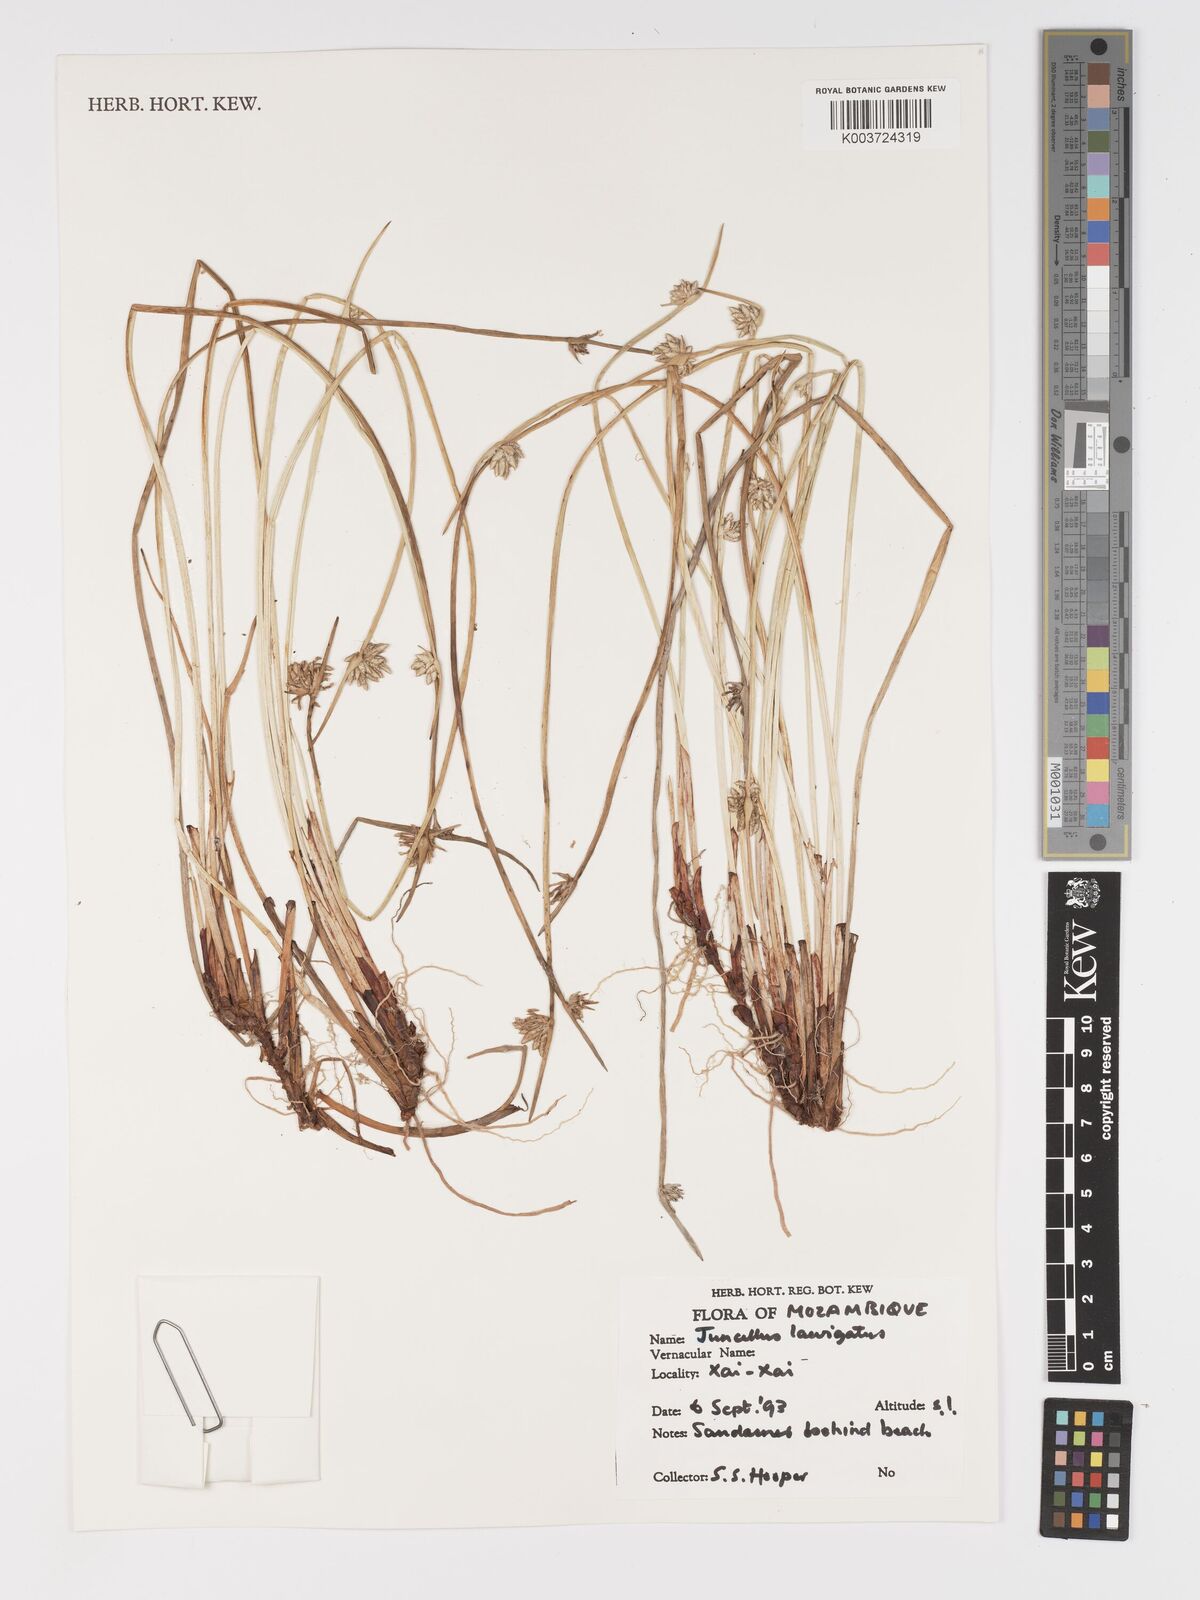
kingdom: Plantae
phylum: Tracheophyta
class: Liliopsida
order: Poales
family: Cyperaceae
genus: Cyperus
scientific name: Cyperus laevigatus
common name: Smooth flat sedge
